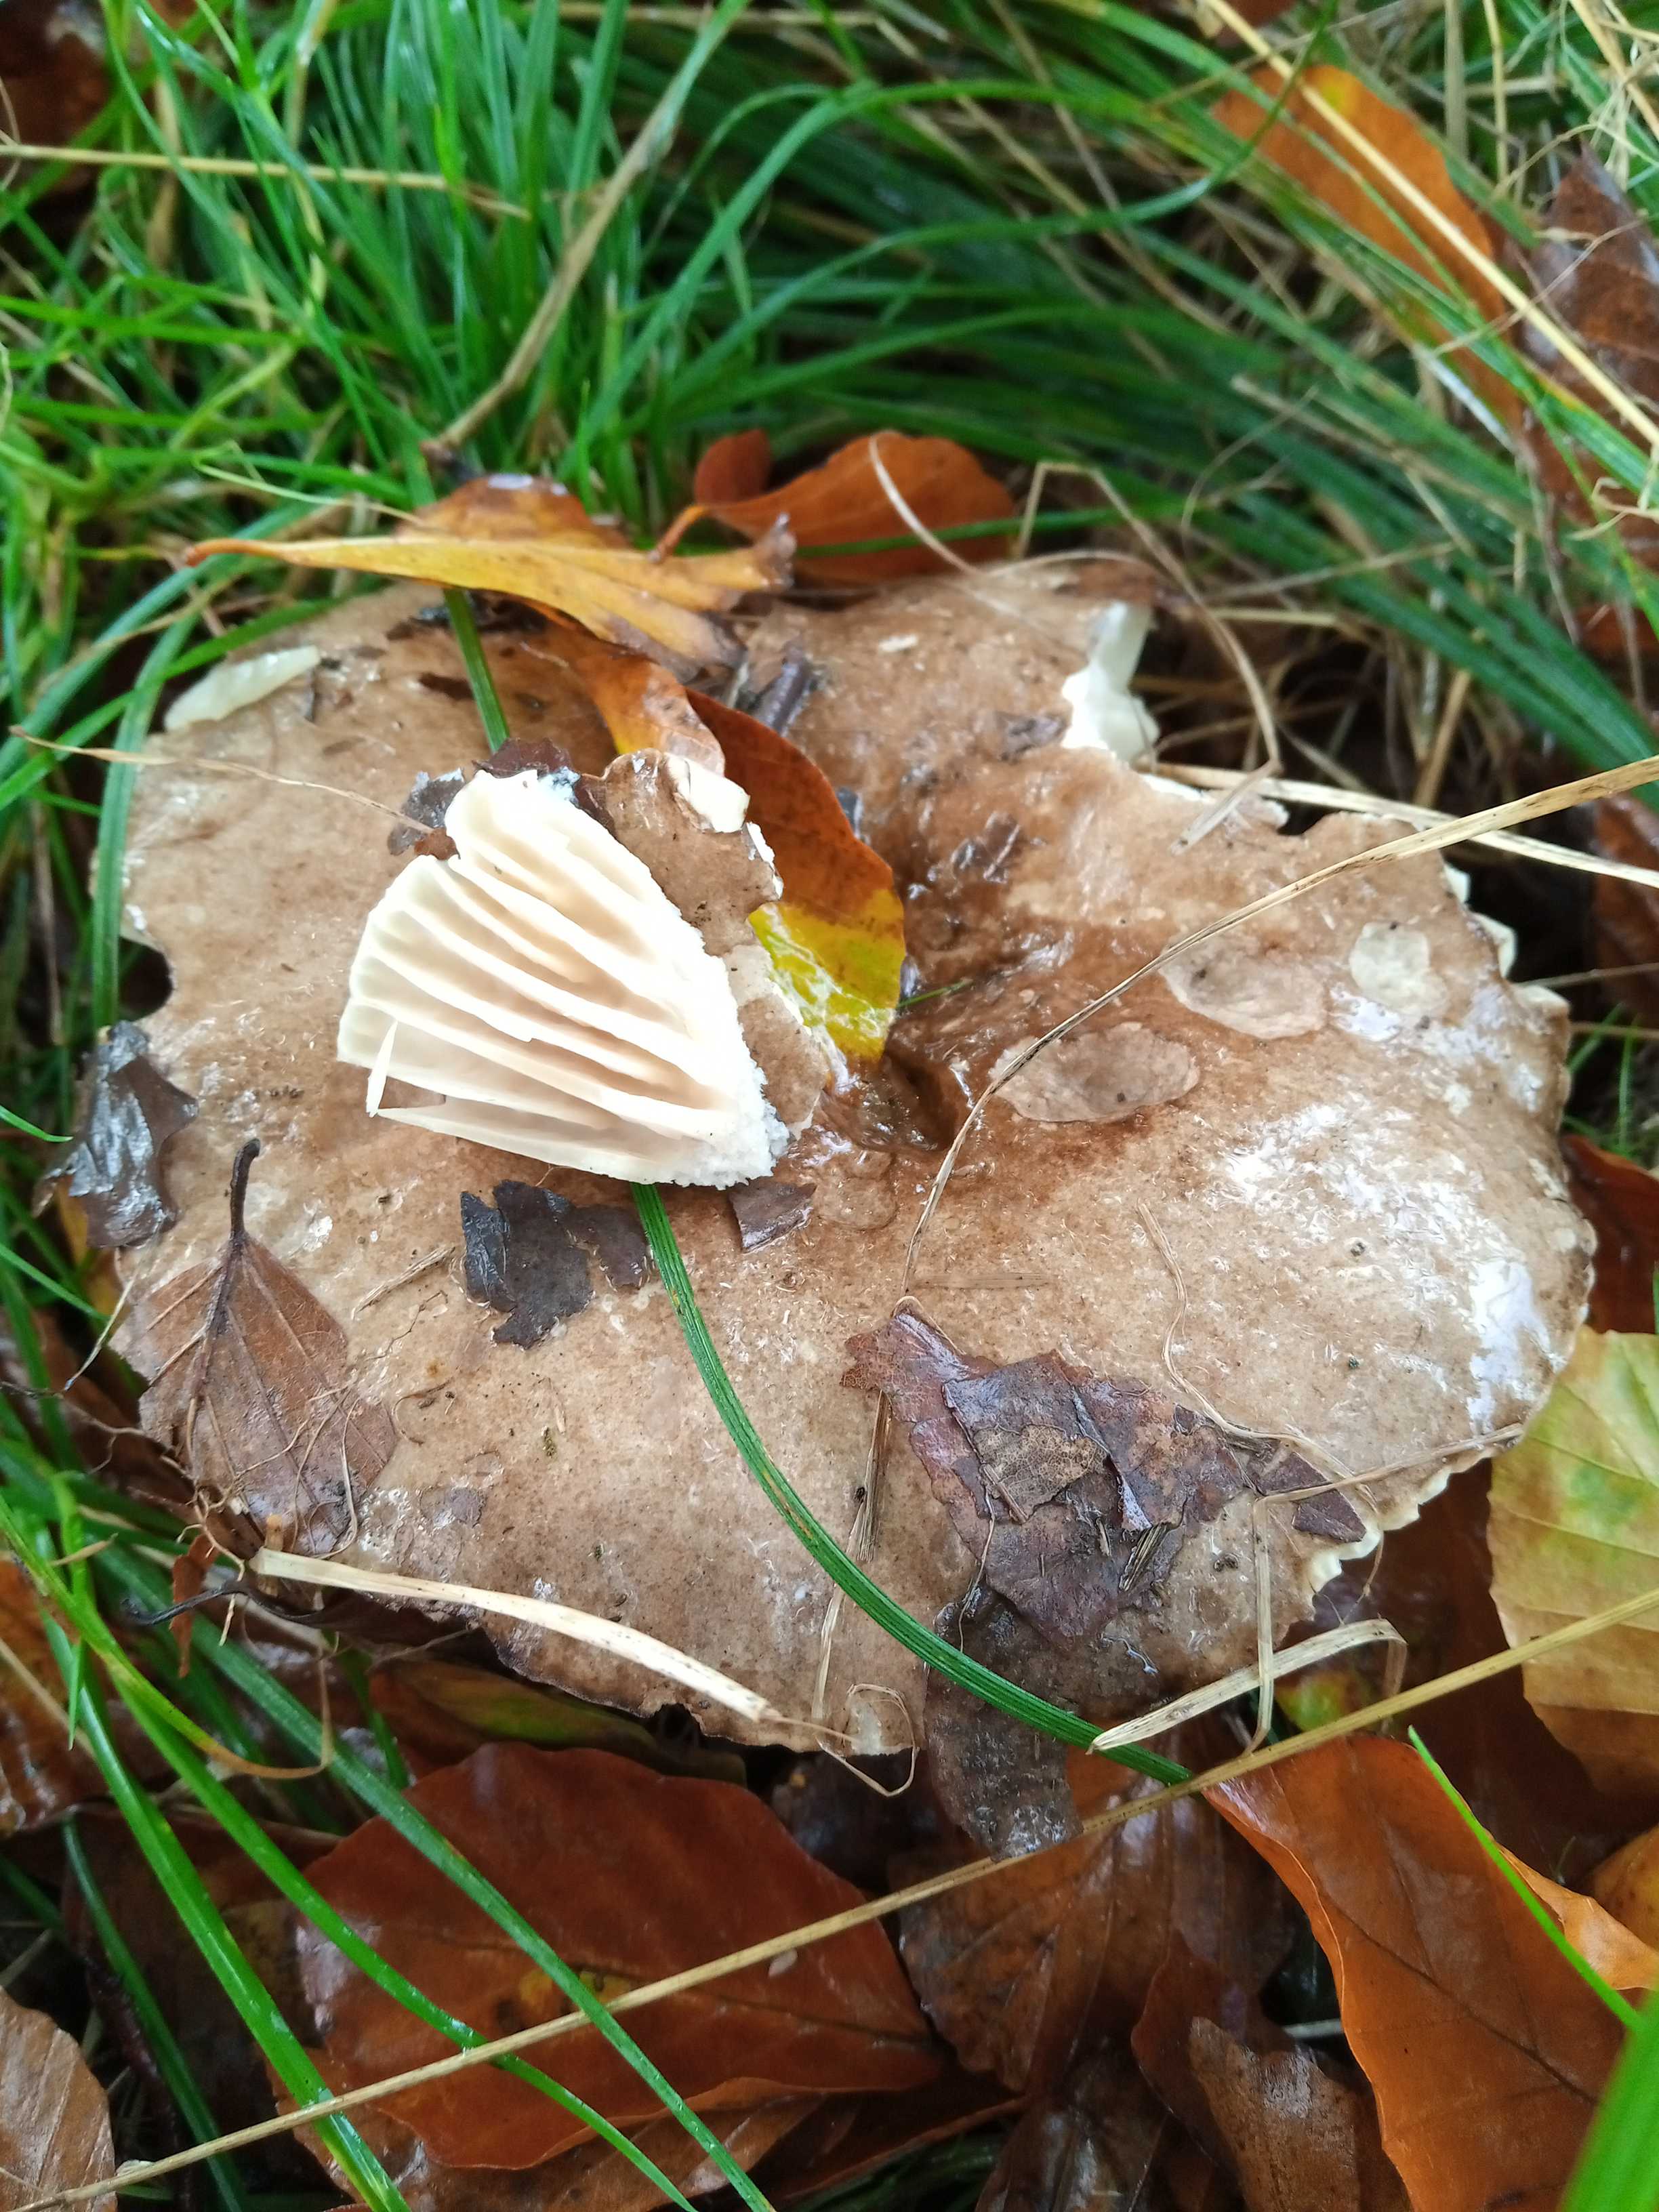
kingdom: Fungi
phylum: Basidiomycota
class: Agaricomycetes
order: Russulales
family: Russulaceae
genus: Russula
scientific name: Russula adusta
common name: sværtende skørhat
